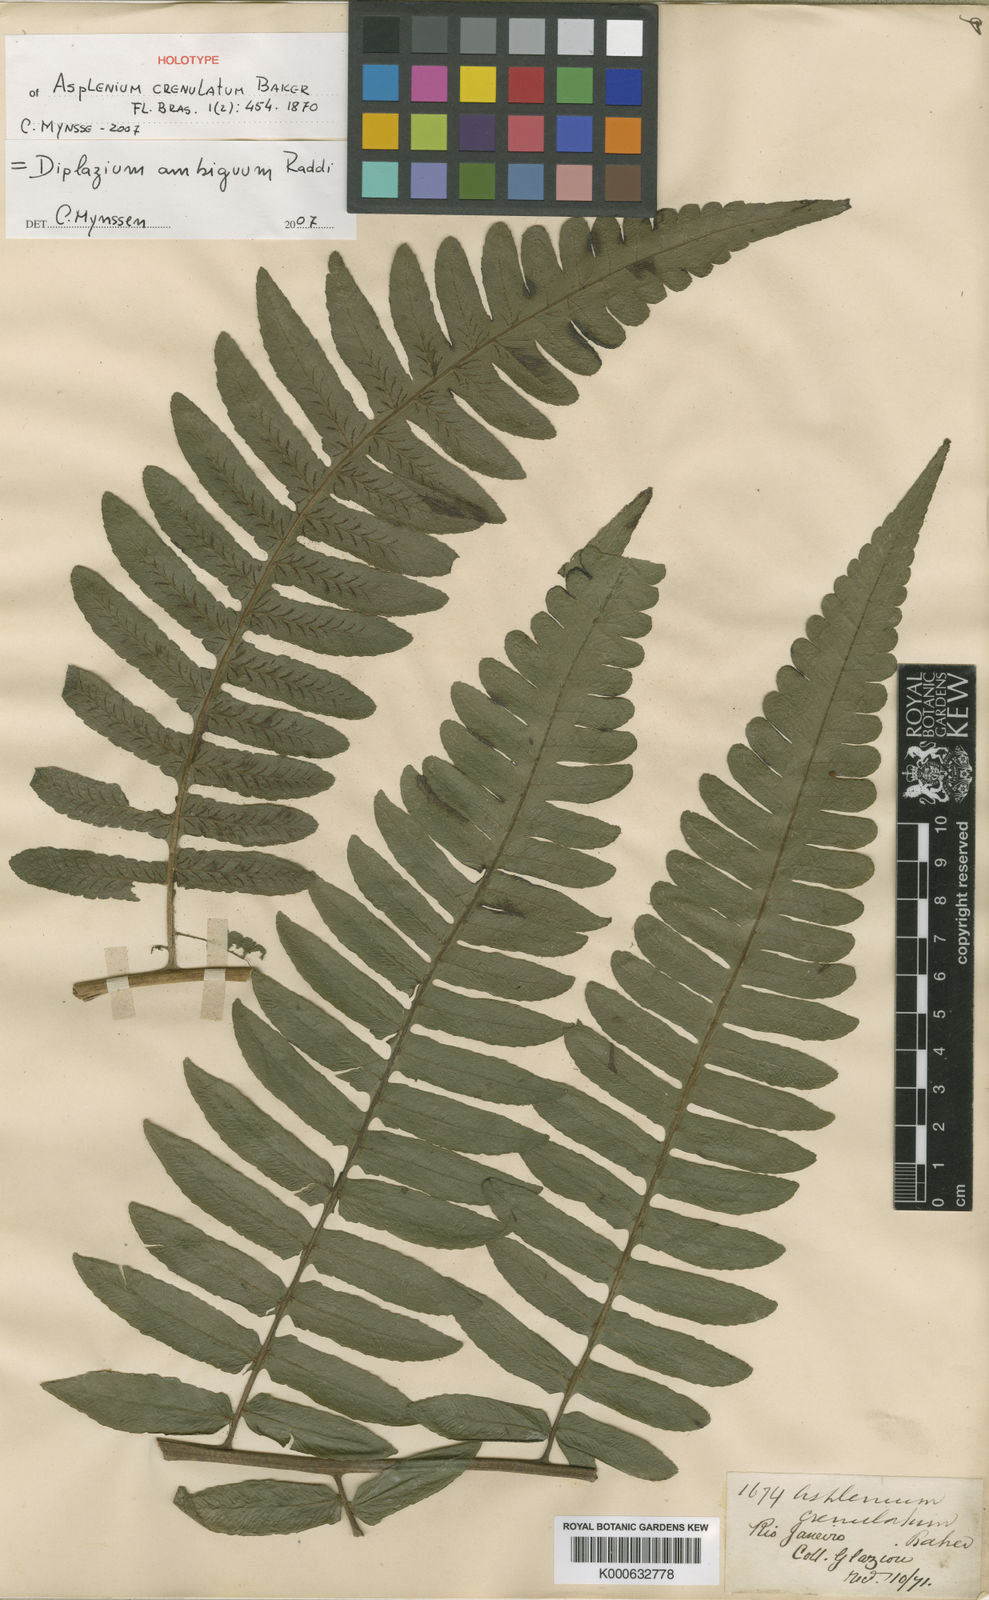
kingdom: Plantae
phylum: Tracheophyta
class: Polypodiopsida
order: Polypodiales
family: Athyriaceae
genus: Diplazium
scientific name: Diplazium ambiguum
